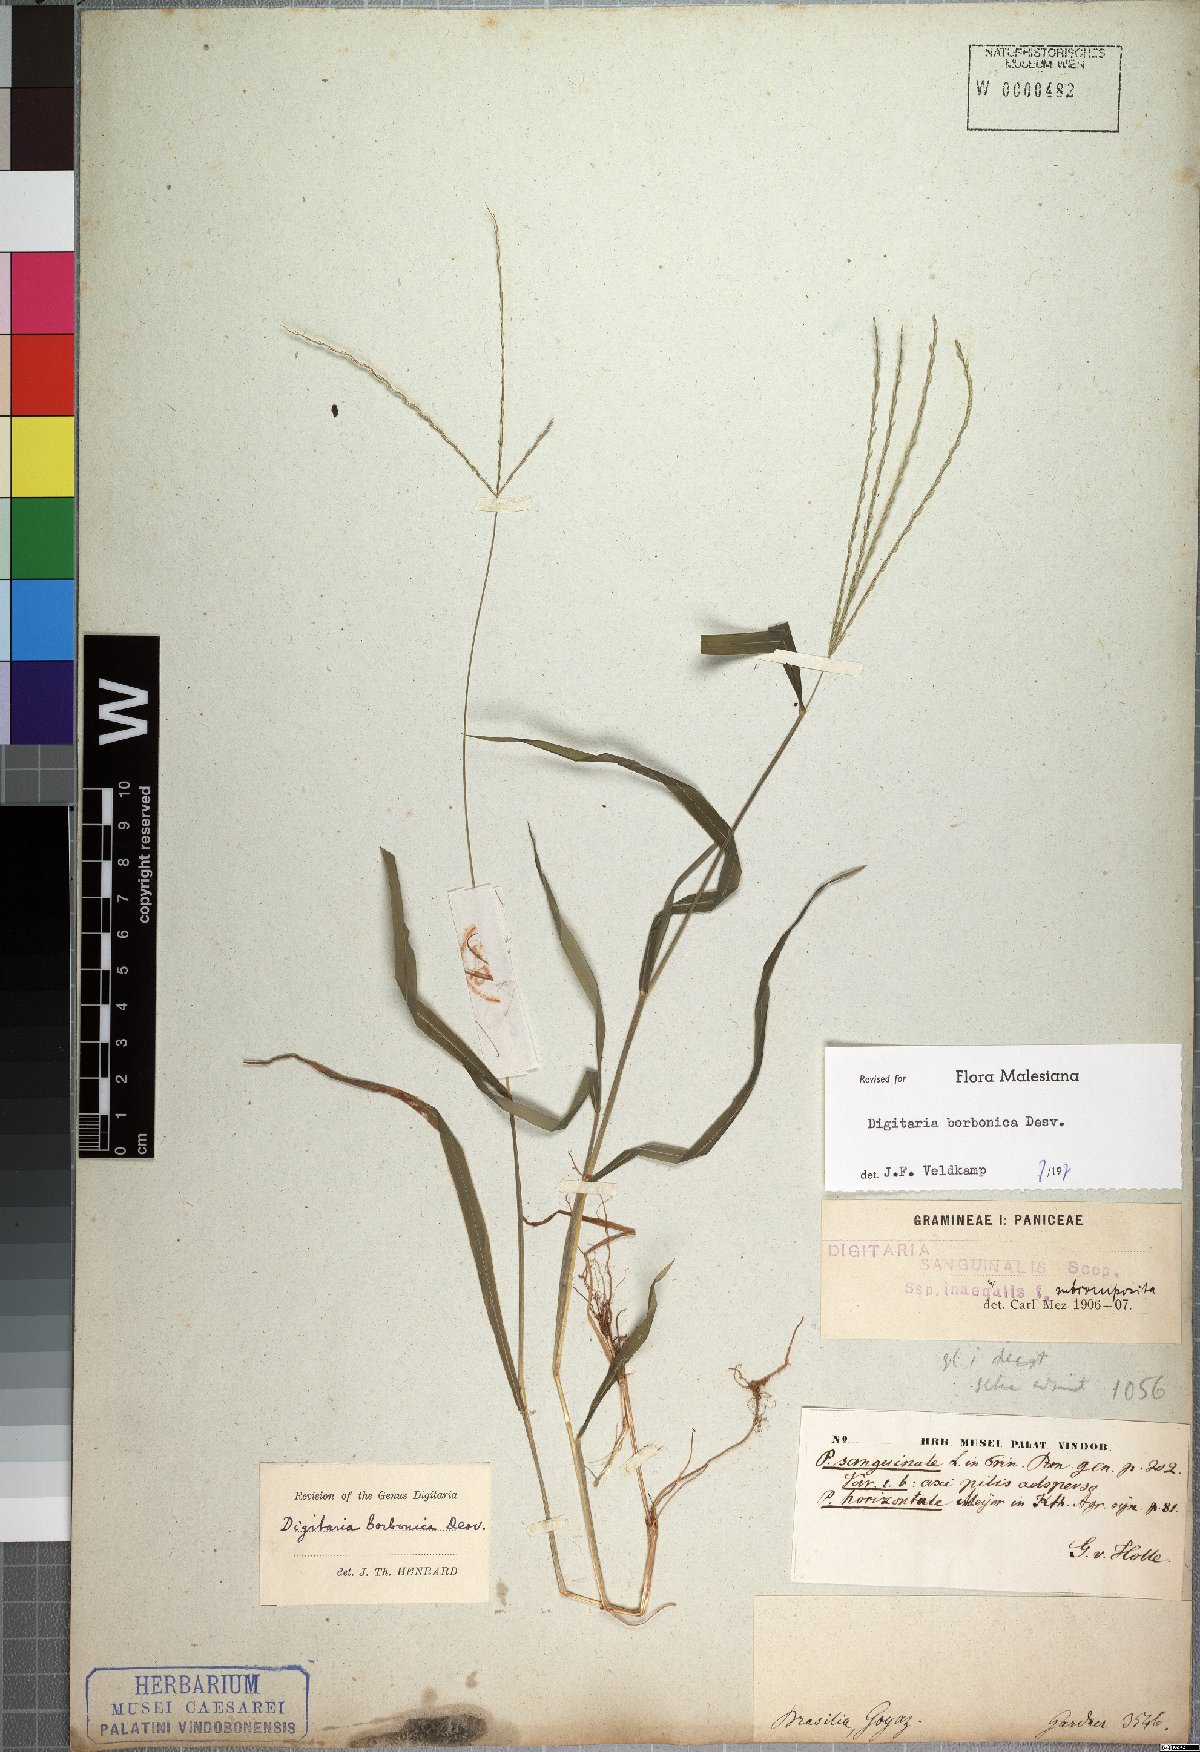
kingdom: Plantae
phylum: Tracheophyta
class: Liliopsida
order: Poales
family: Poaceae
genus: Digitaria
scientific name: Digitaria nuda
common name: Naked crabgrass
